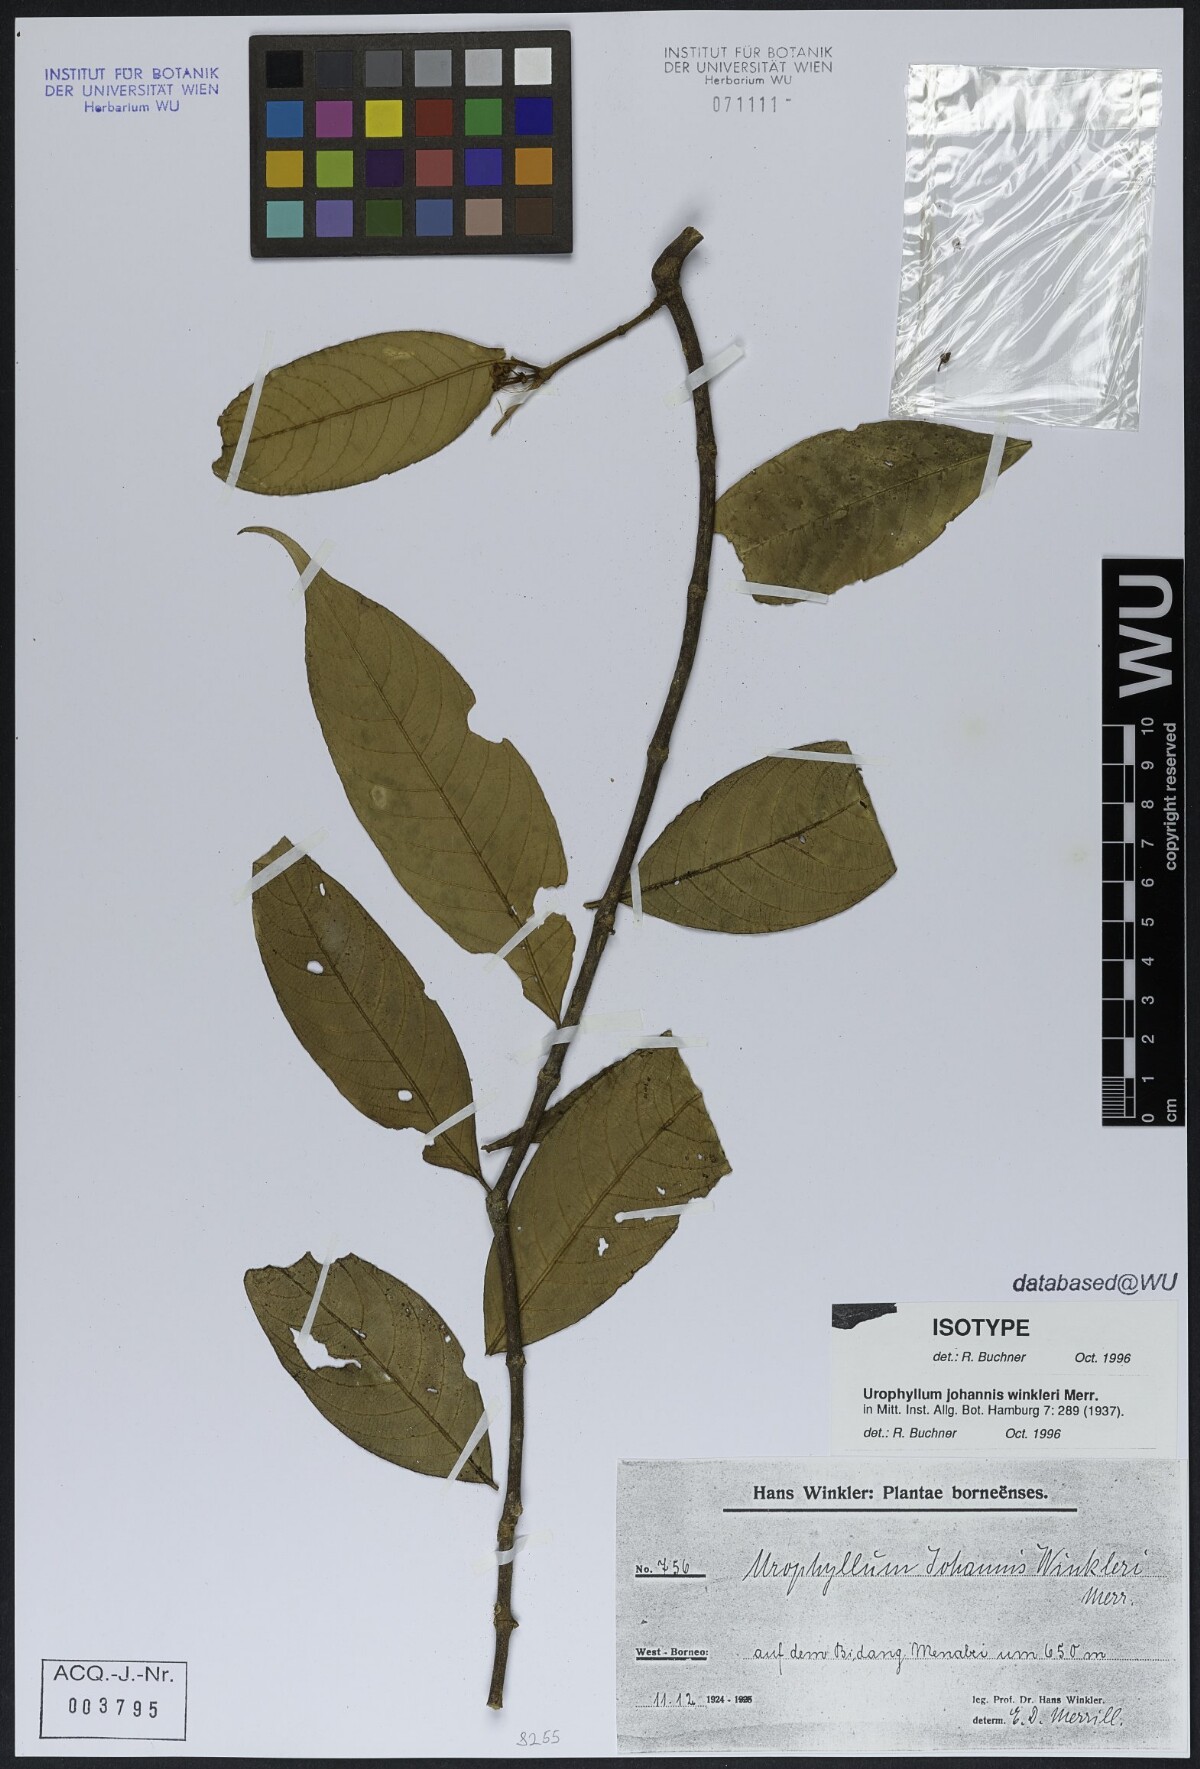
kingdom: Plantae
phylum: Tracheophyta
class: Magnoliopsida
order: Gentianales
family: Rubiaceae
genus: Urophyllum
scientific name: Urophyllum johannis-winkleri
